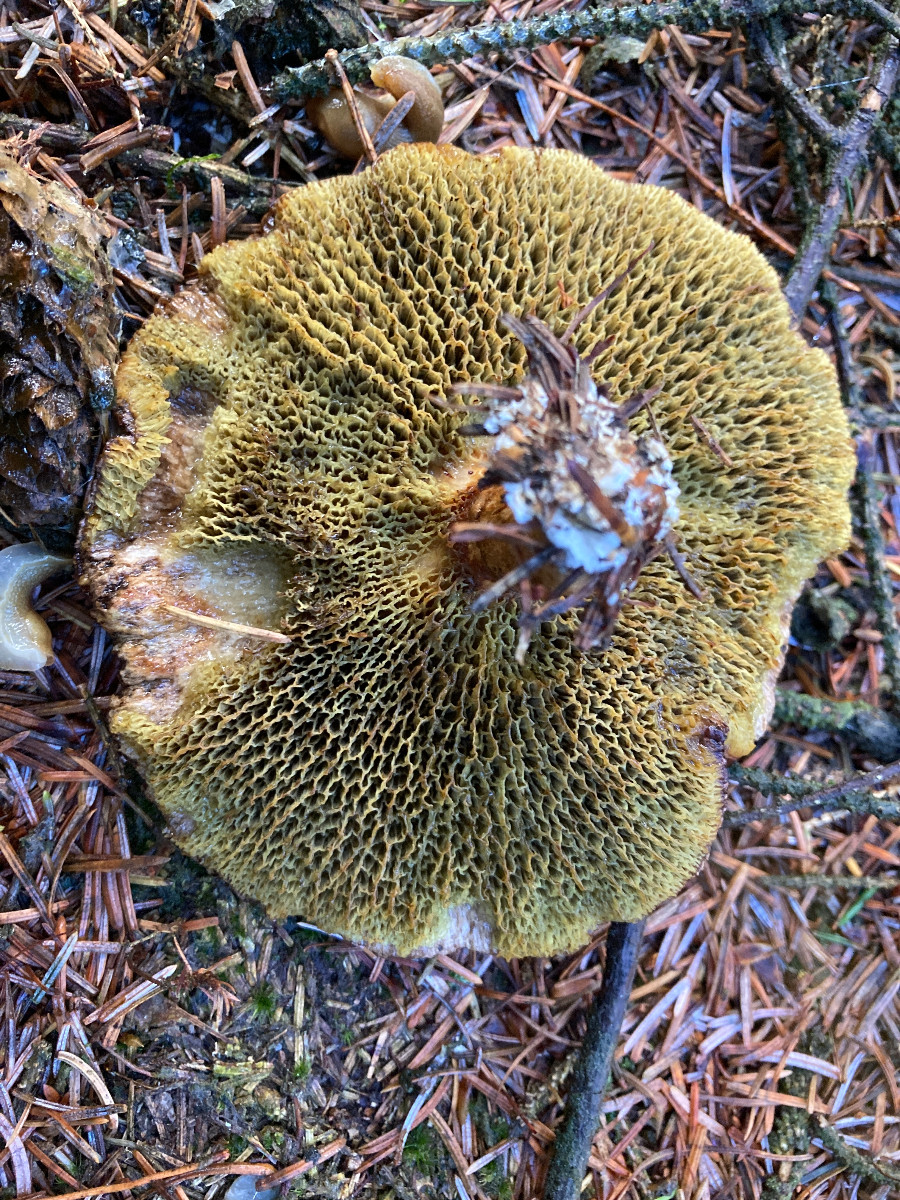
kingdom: Fungi
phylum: Basidiomycota
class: Agaricomycetes
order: Boletales
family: Suillaceae
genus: Suillus
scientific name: Suillus cavipes
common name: hulstokket slimrørhat
